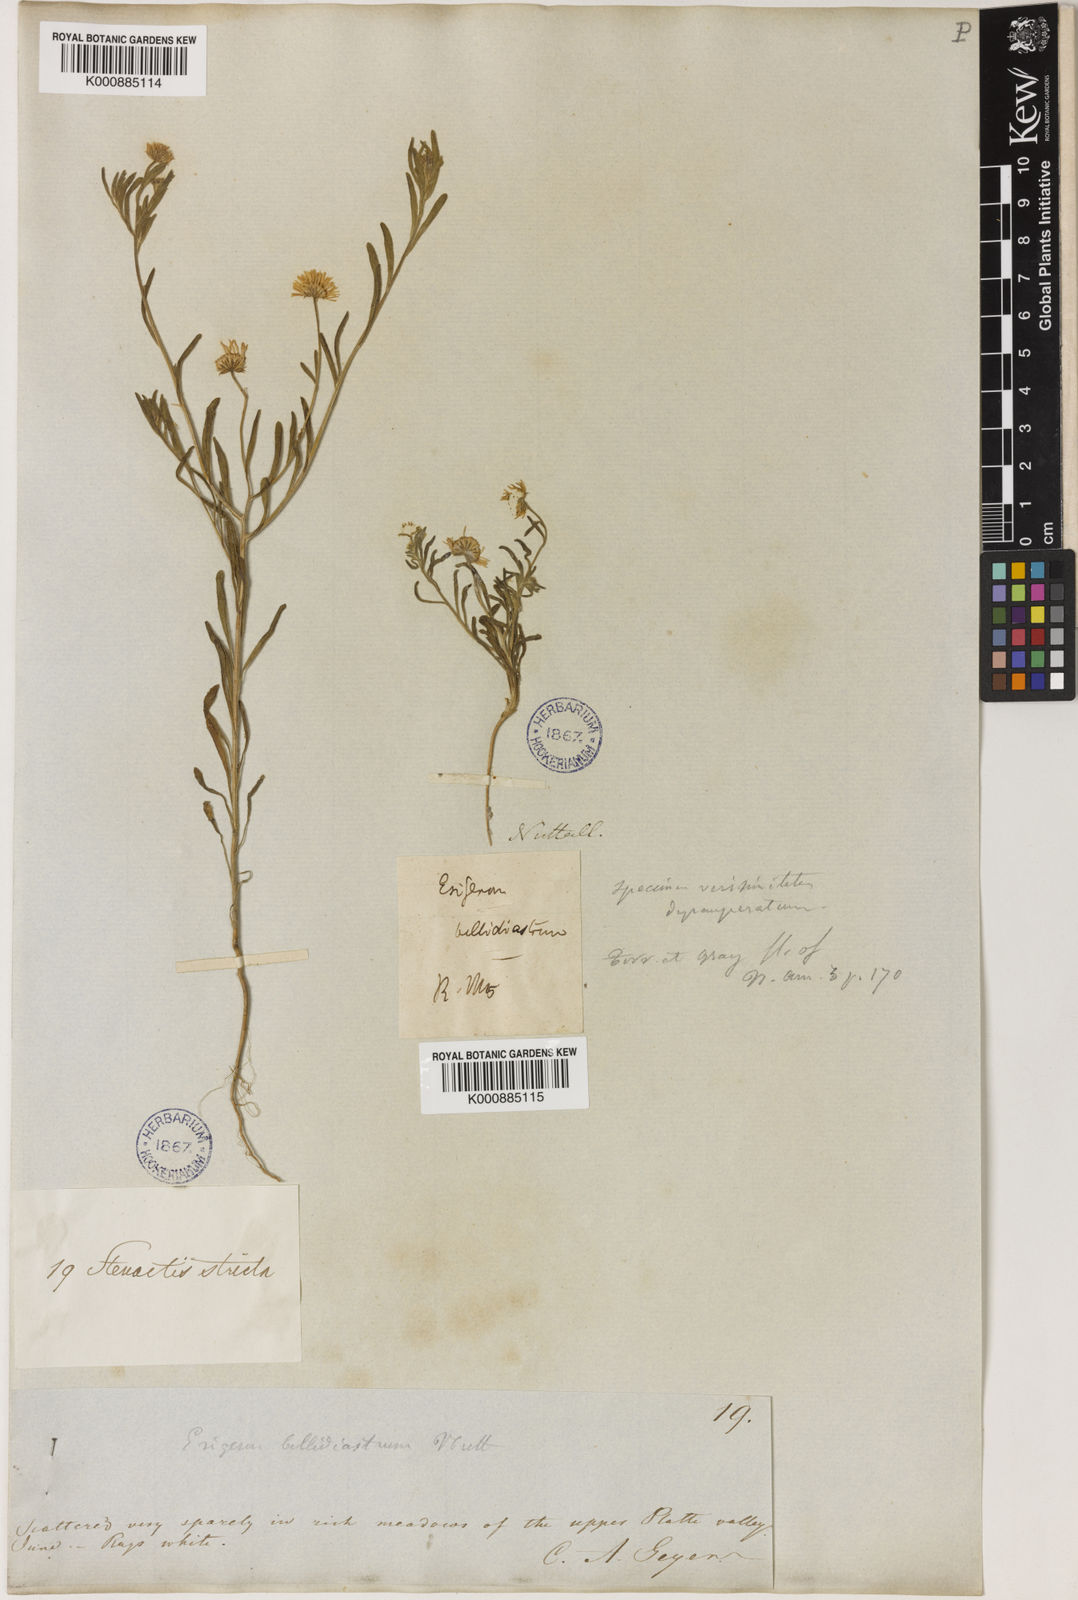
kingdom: Plantae
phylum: Tracheophyta
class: Magnoliopsida
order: Asterales
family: Asteraceae
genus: Erigeron
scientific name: Erigeron bellidiastrum
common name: Sand fleabane
